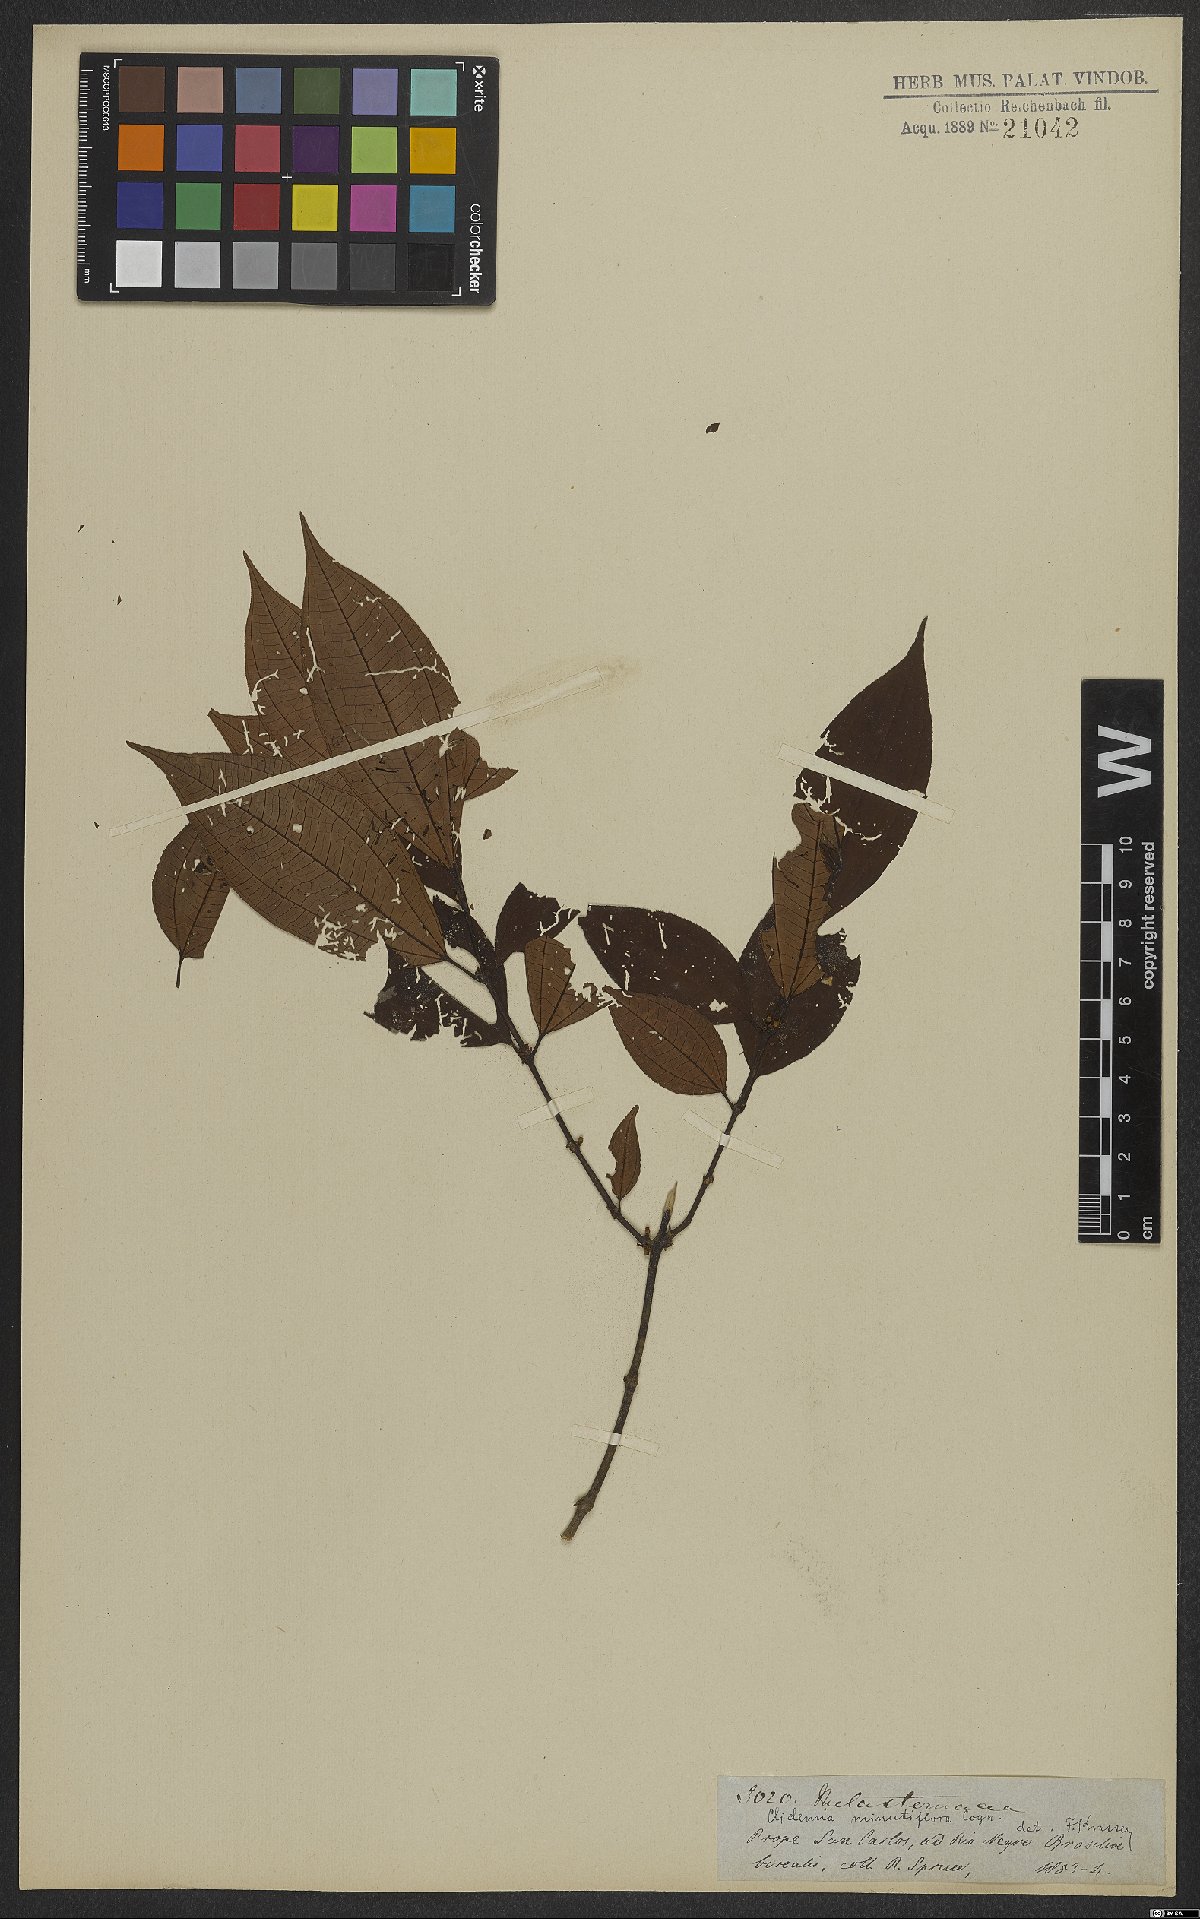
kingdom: Plantae
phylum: Tracheophyta
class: Magnoliopsida
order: Myrtales
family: Melastomataceae
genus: Miconia
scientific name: Miconia minutiflora
